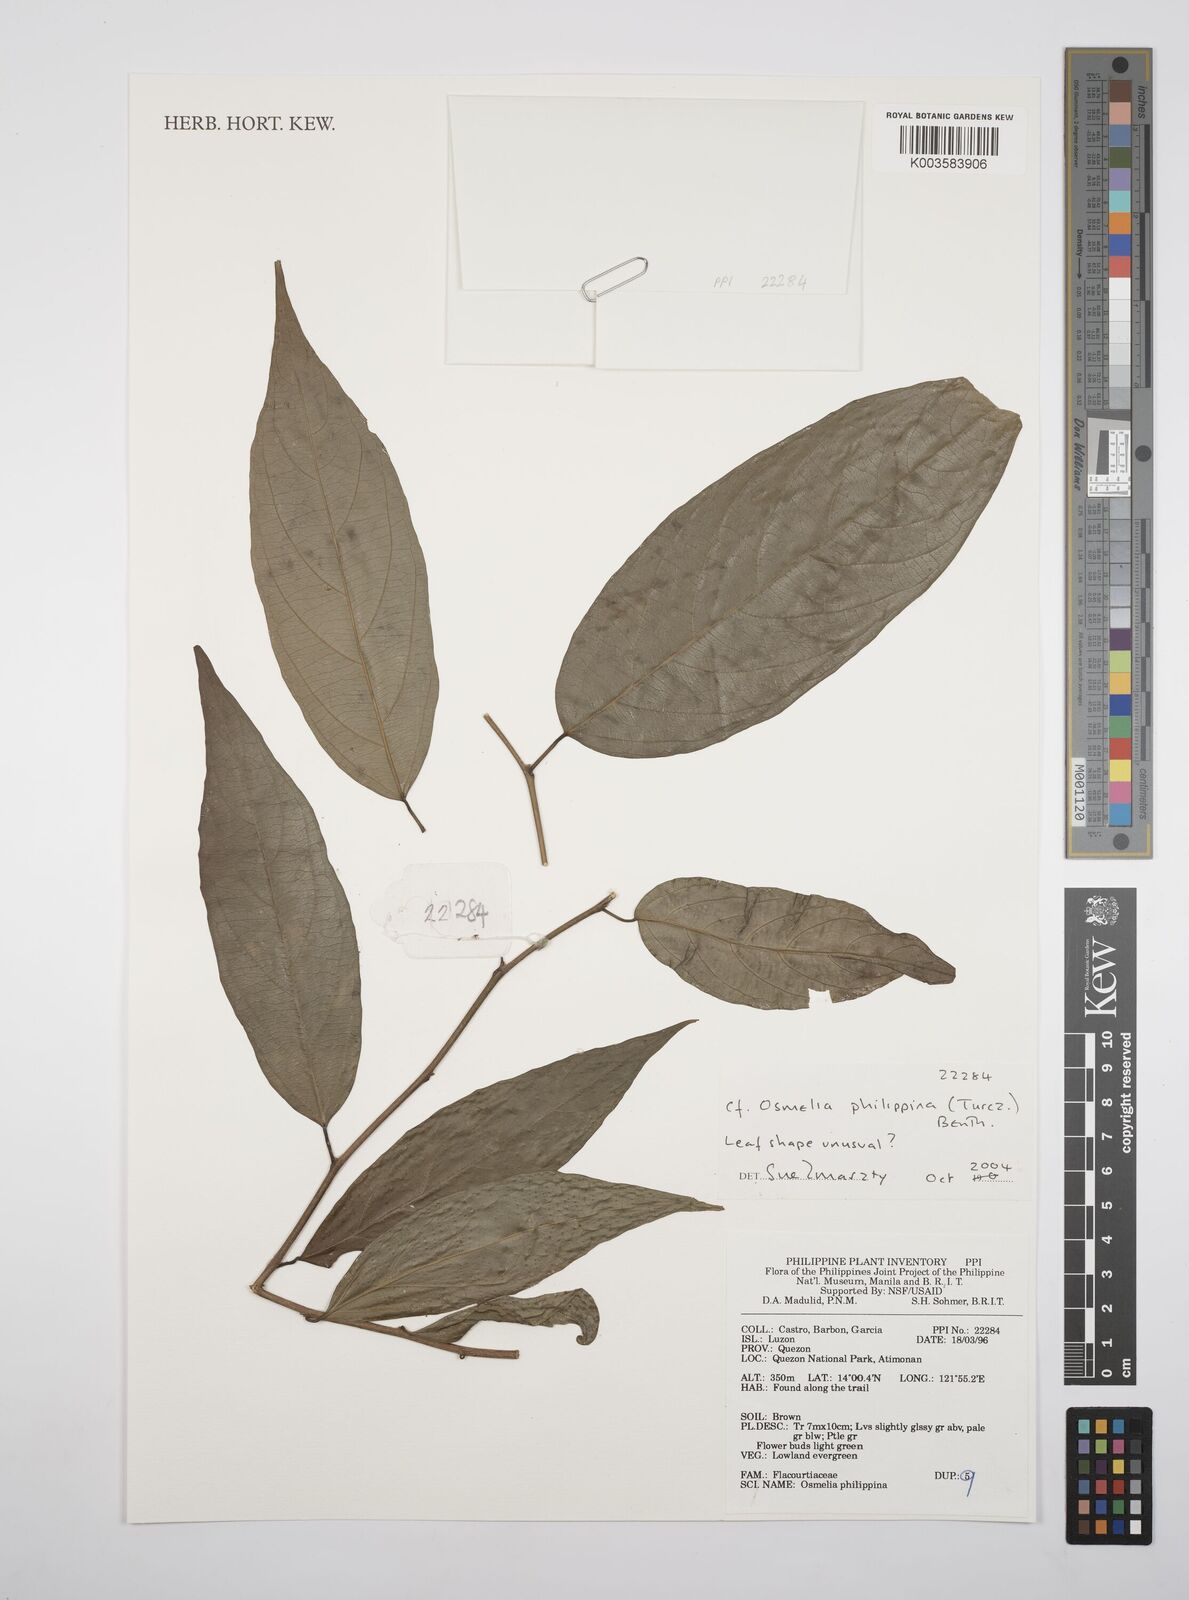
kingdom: Plantae
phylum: Tracheophyta
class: Magnoliopsida
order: Malpighiales
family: Salicaceae
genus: Osmelia
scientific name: Osmelia philippina
